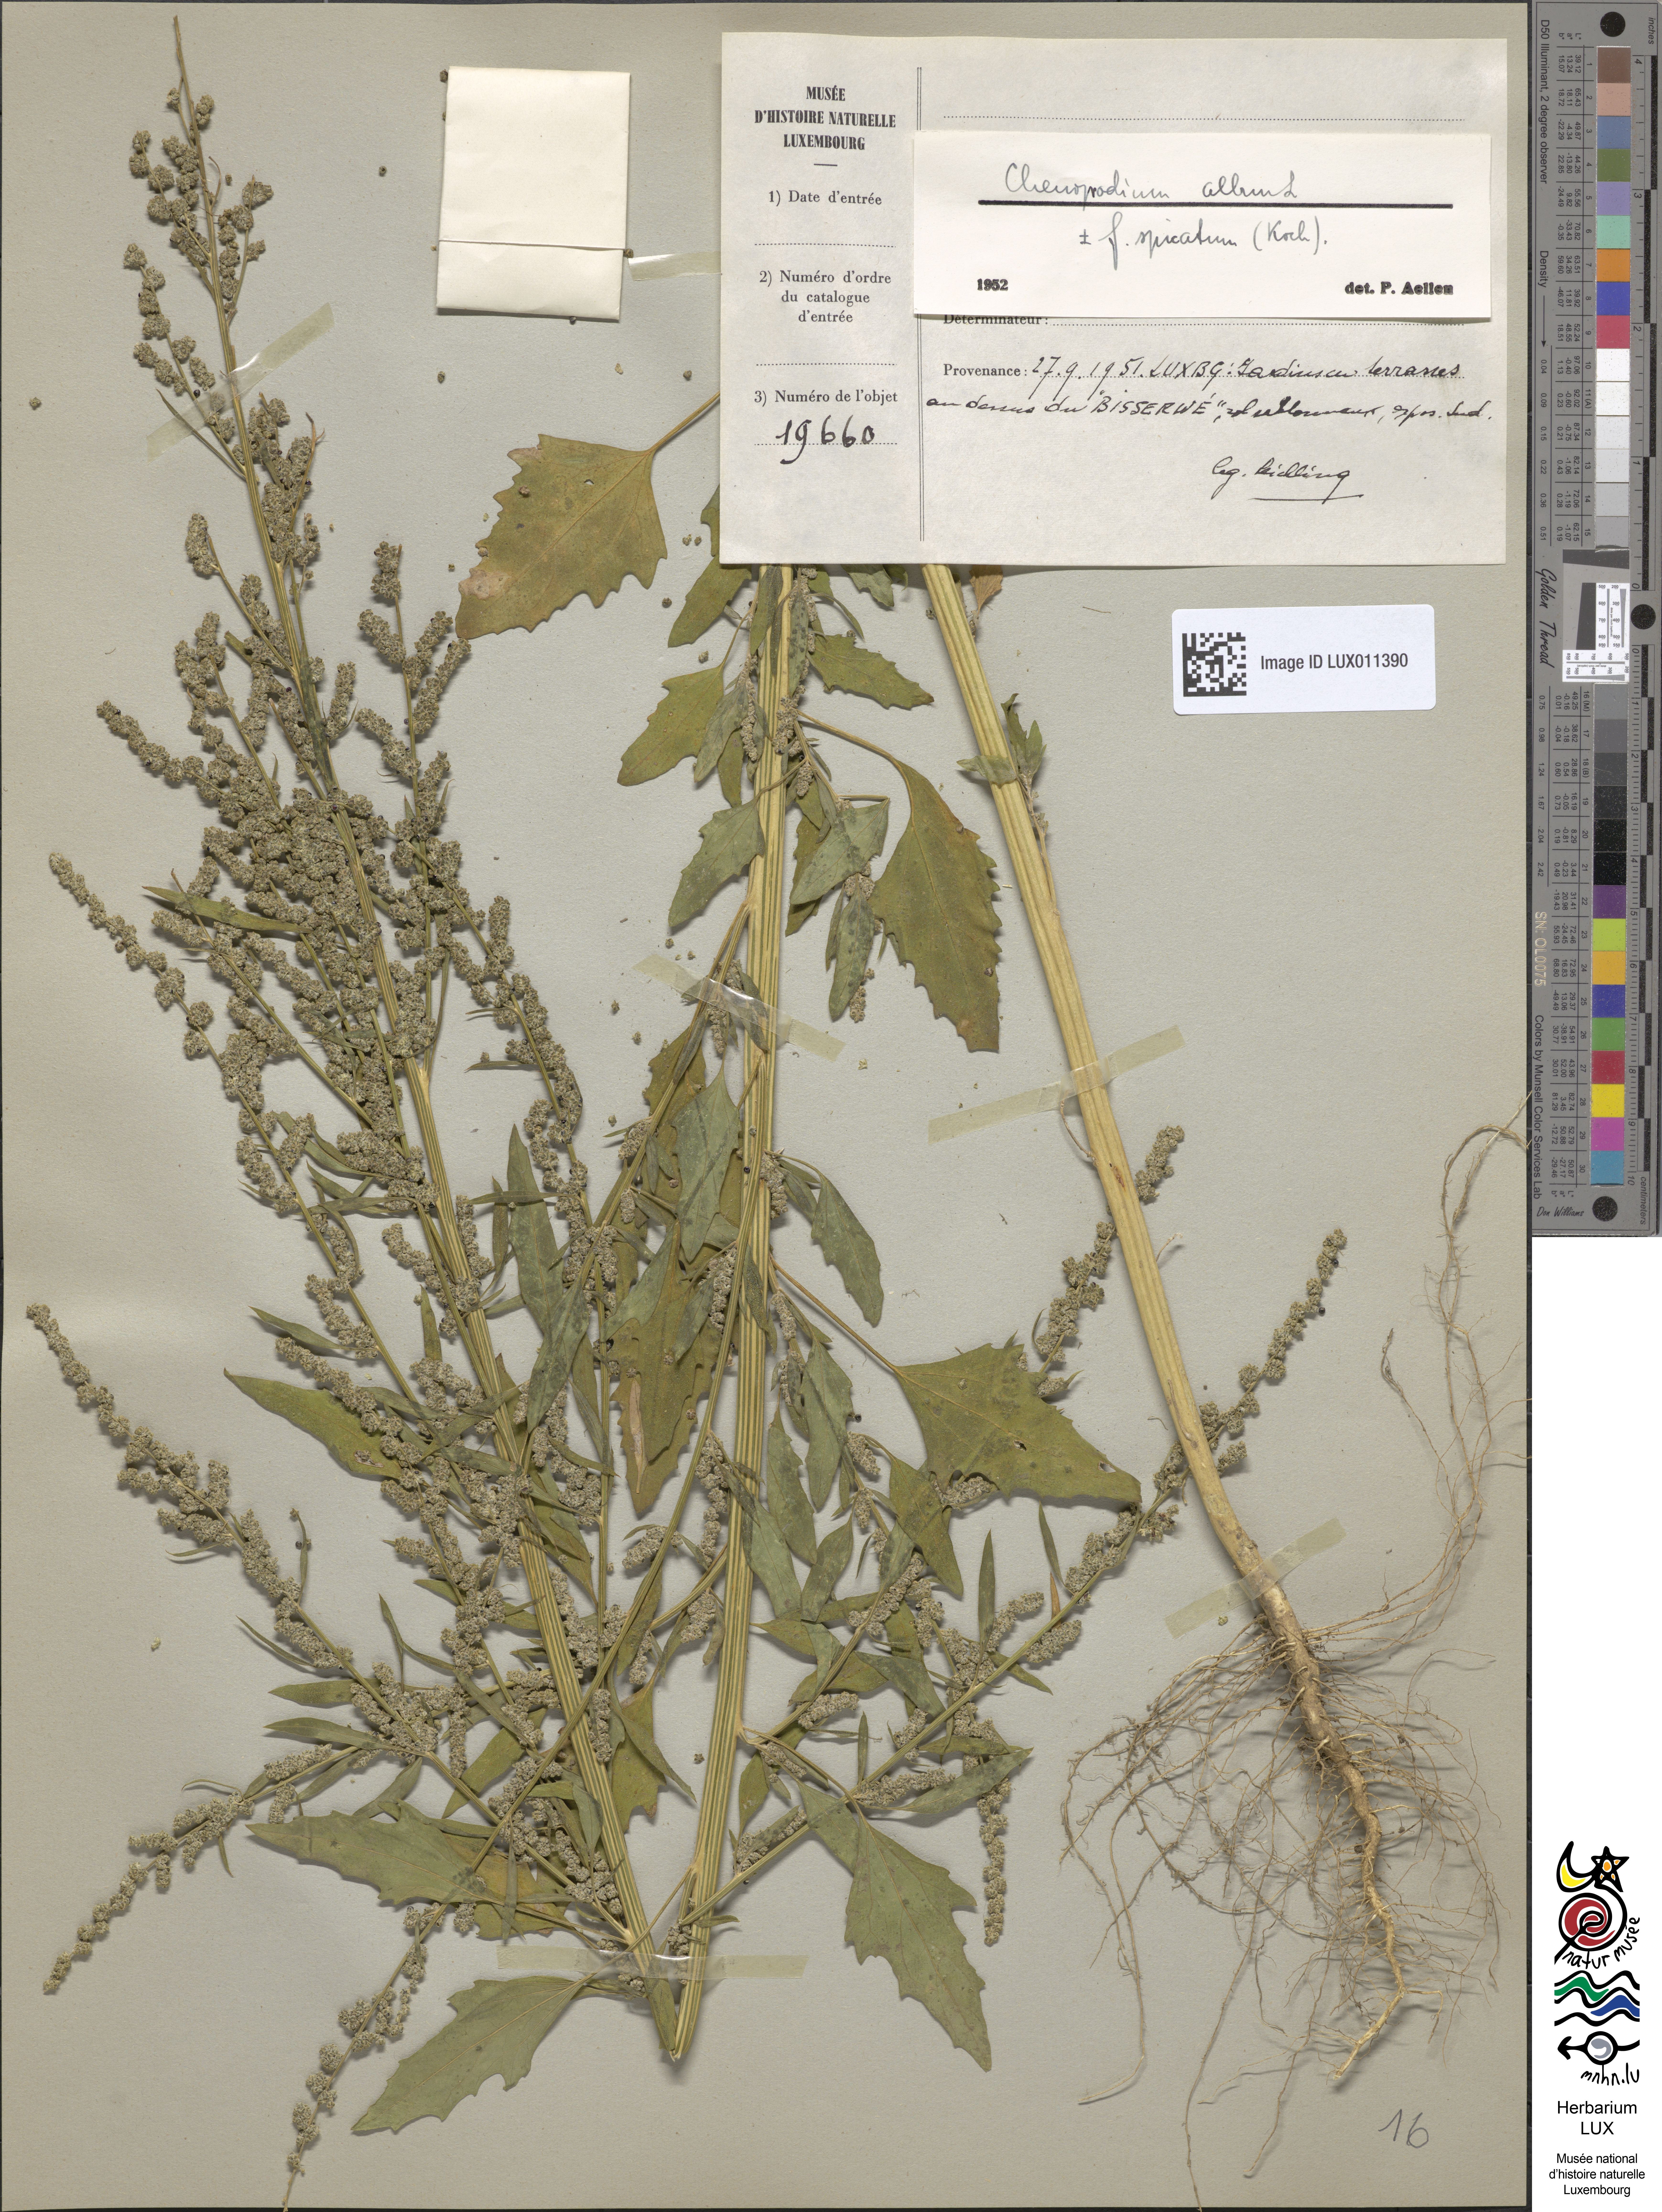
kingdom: Plantae
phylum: Tracheophyta
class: Magnoliopsida
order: Caryophyllales
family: Amaranthaceae
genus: Chenopodium
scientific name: Chenopodium album
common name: Fat-hen
